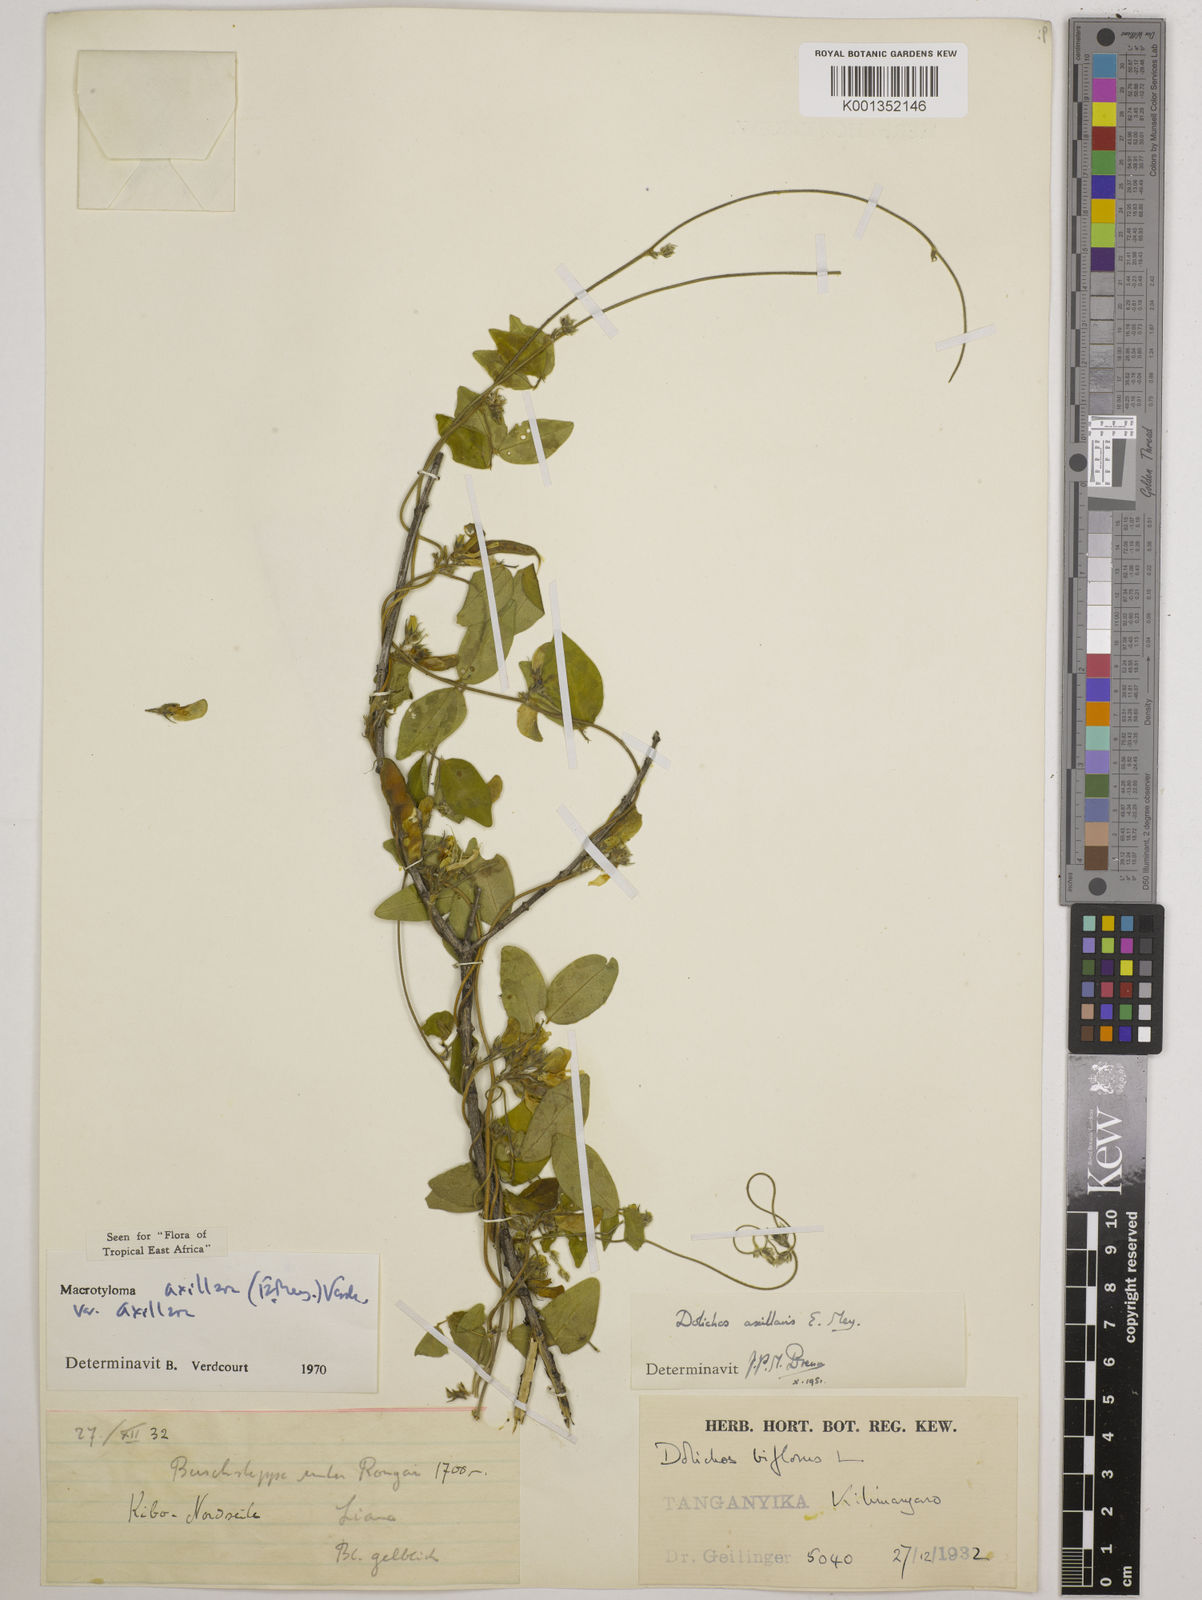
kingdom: Plantae
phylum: Tracheophyta
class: Magnoliopsida
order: Fabales
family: Fabaceae
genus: Macrotyloma
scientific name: Macrotyloma axillare
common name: Perennial horsegram
